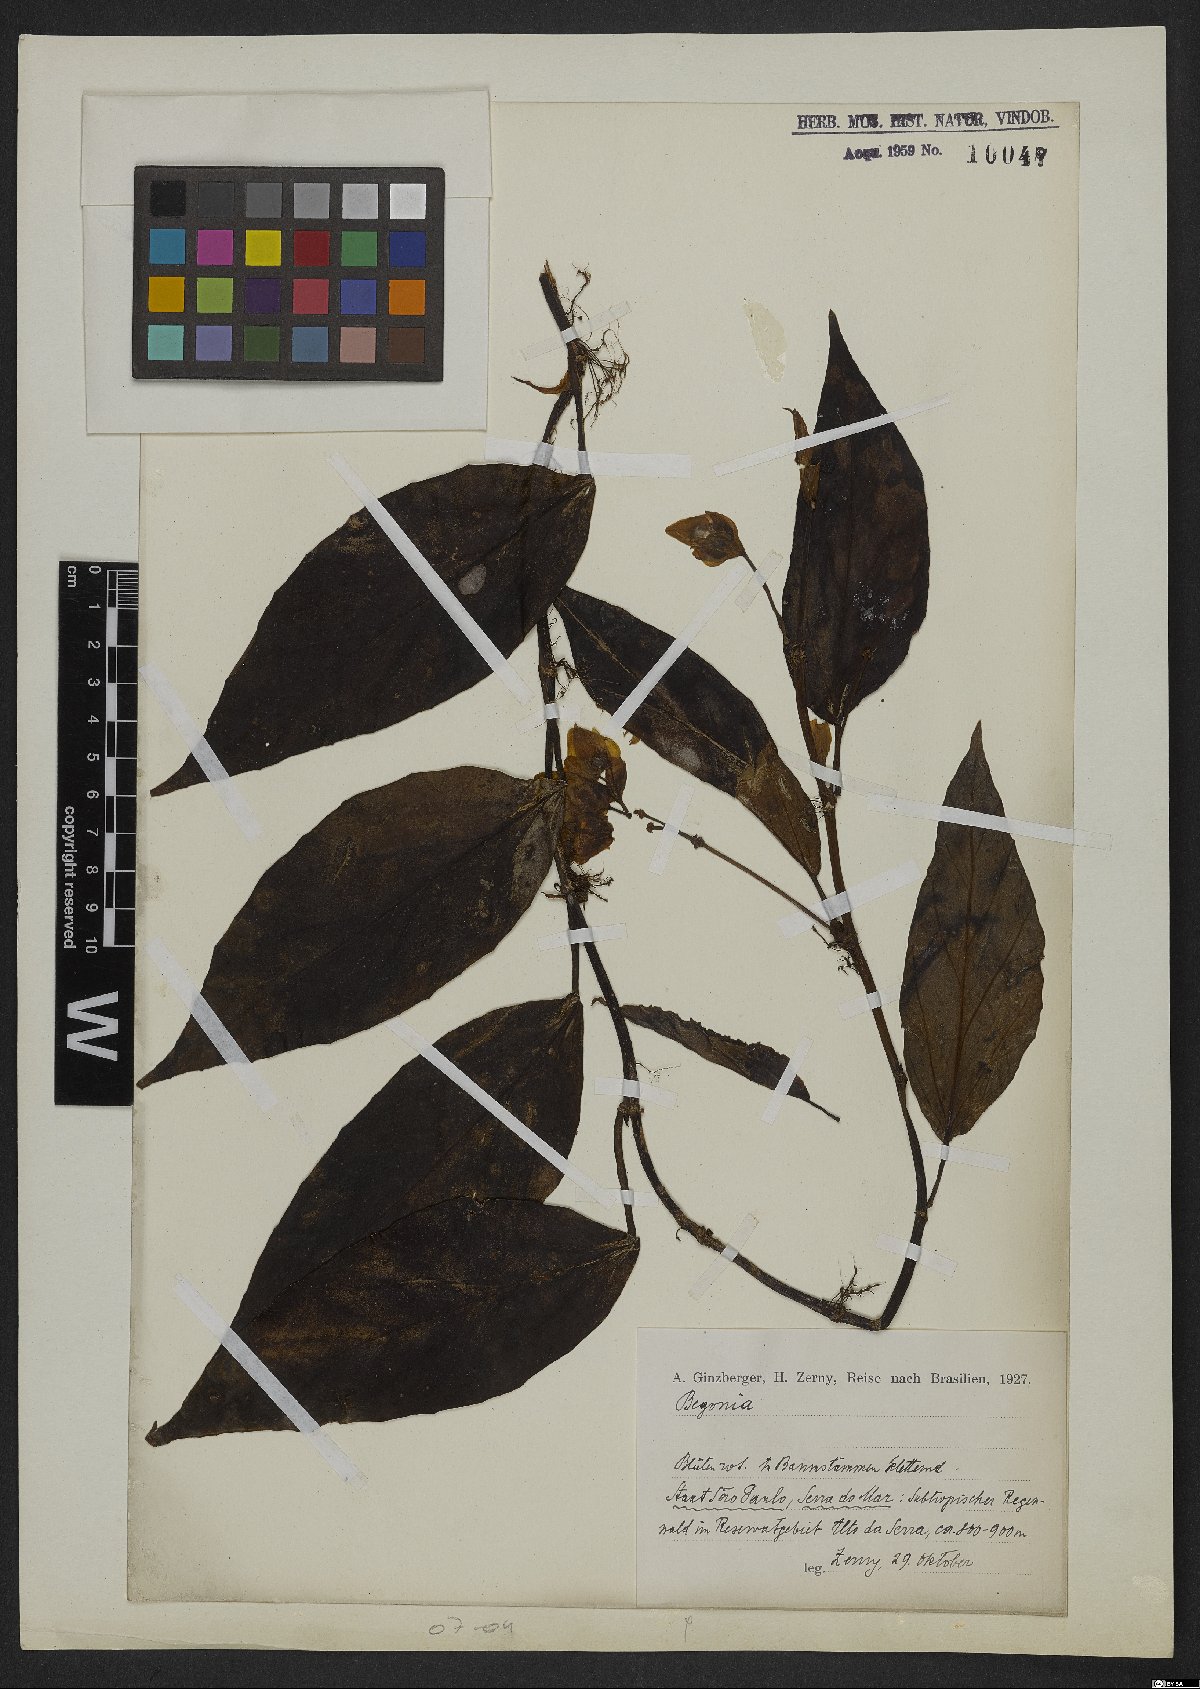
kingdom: Plantae
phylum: Tracheophyta
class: Magnoliopsida
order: Cucurbitales
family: Begoniaceae
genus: Begonia
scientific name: Begonia
